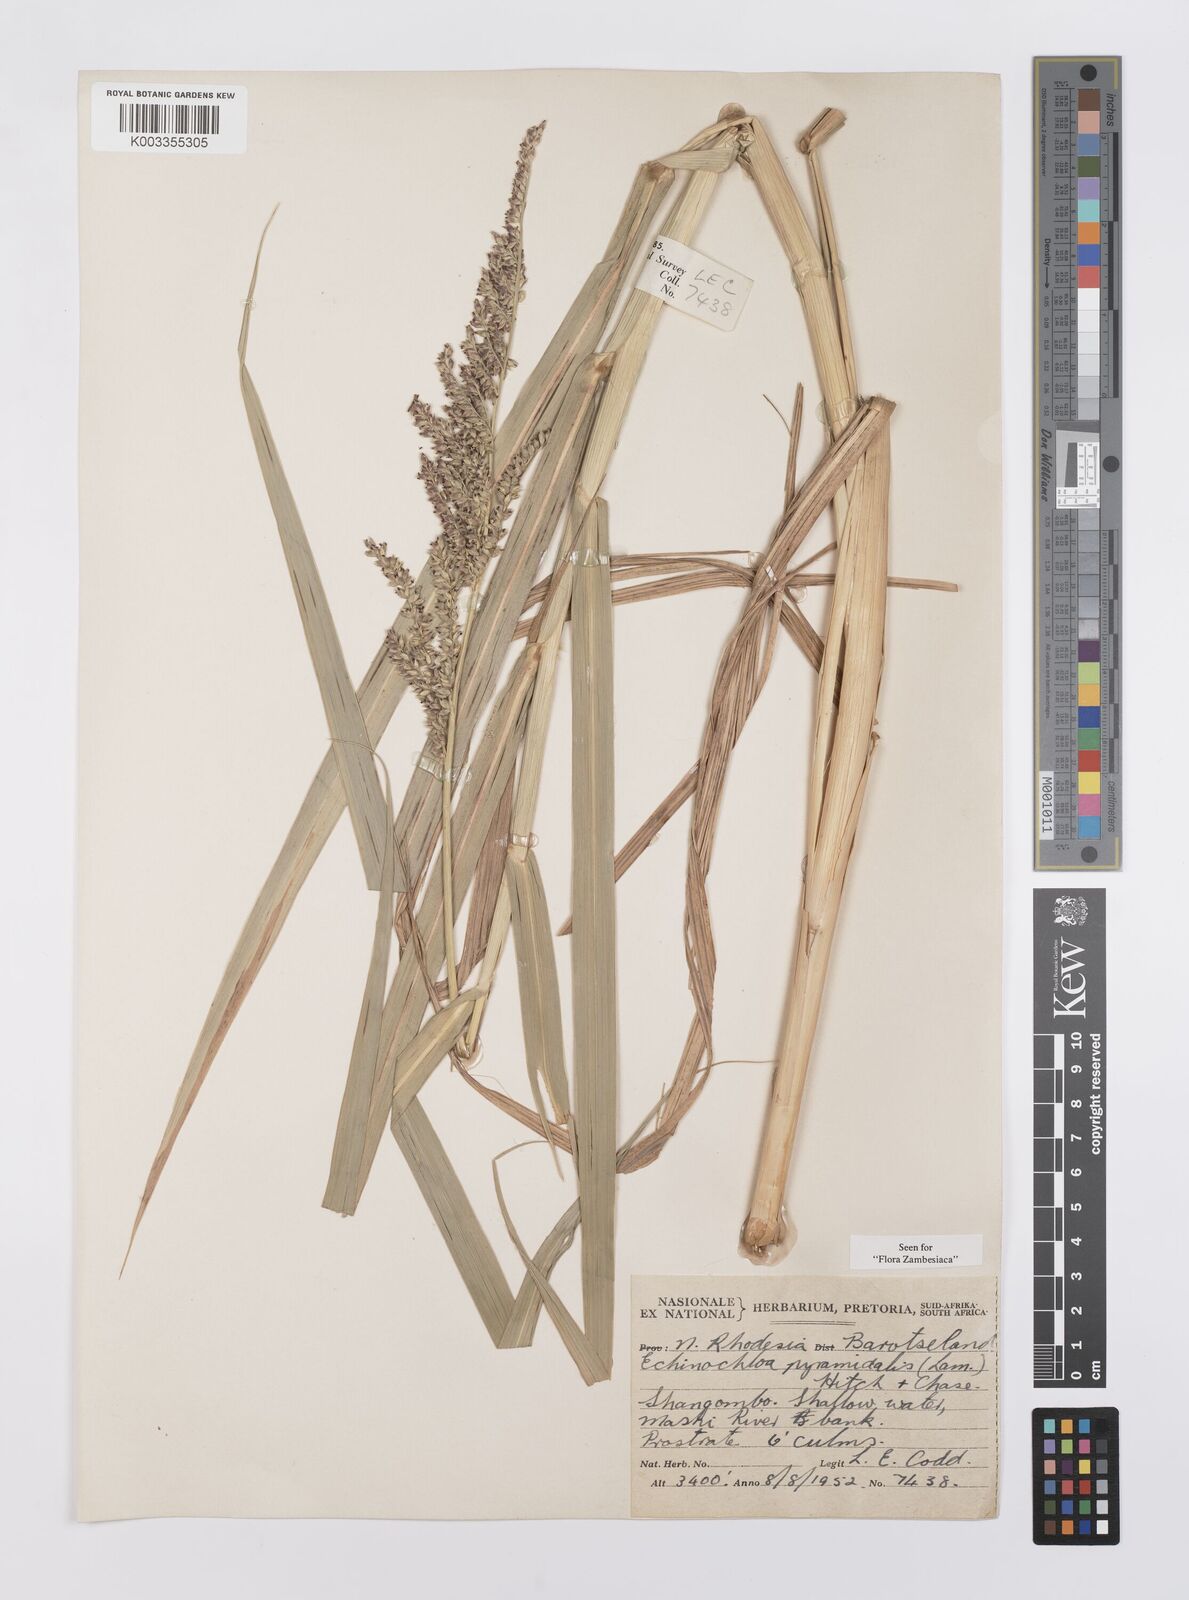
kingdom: Plantae
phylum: Tracheophyta
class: Liliopsida
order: Poales
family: Poaceae
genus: Echinochloa
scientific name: Echinochloa pyramidalis
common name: Antelope grass
